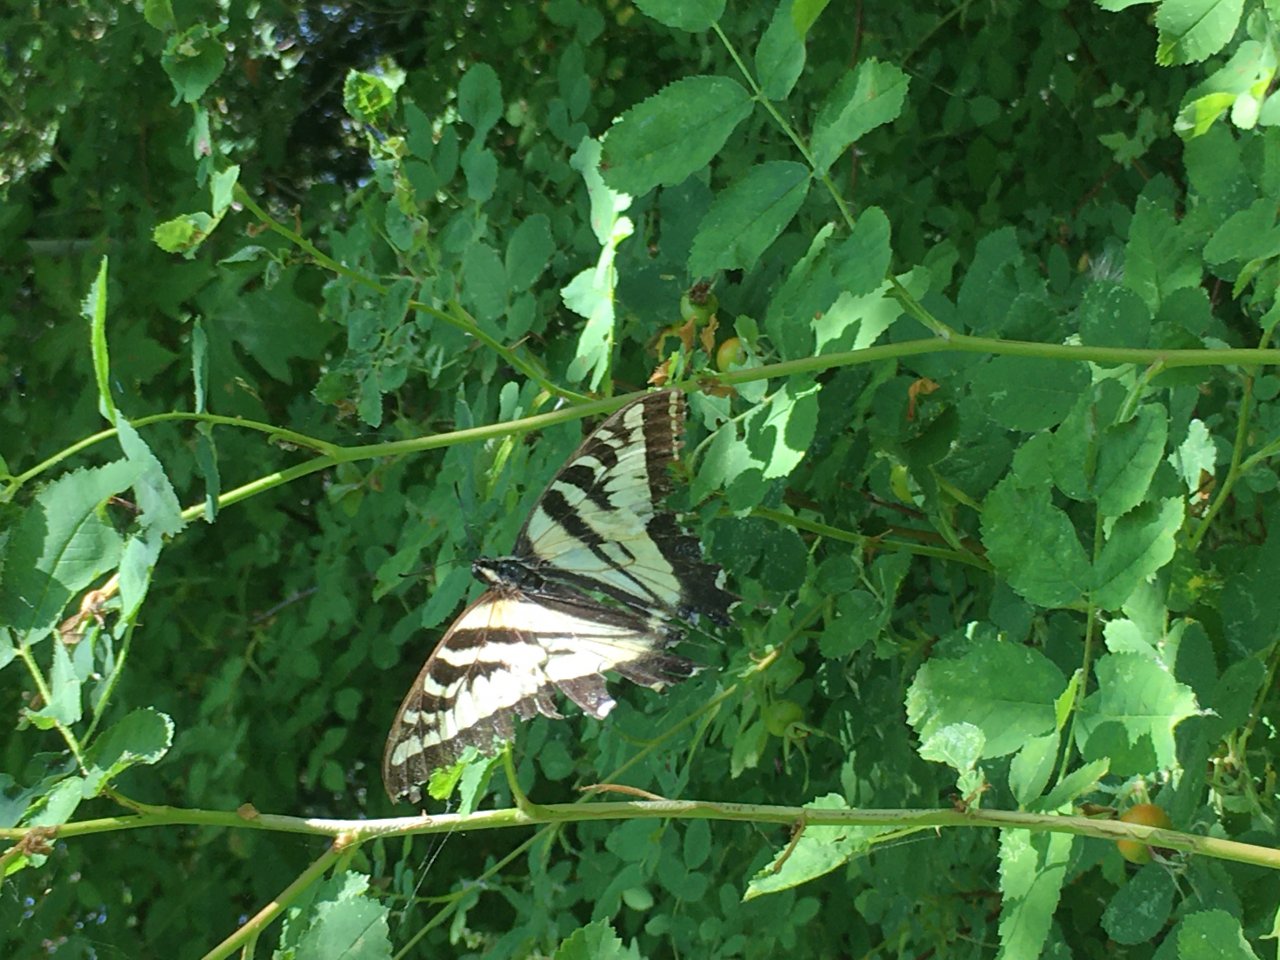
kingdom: Animalia
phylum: Arthropoda
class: Insecta
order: Lepidoptera
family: Papilionidae
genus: Pterourus
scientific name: Pterourus rutulus
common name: Western Tiger Swallowtail
